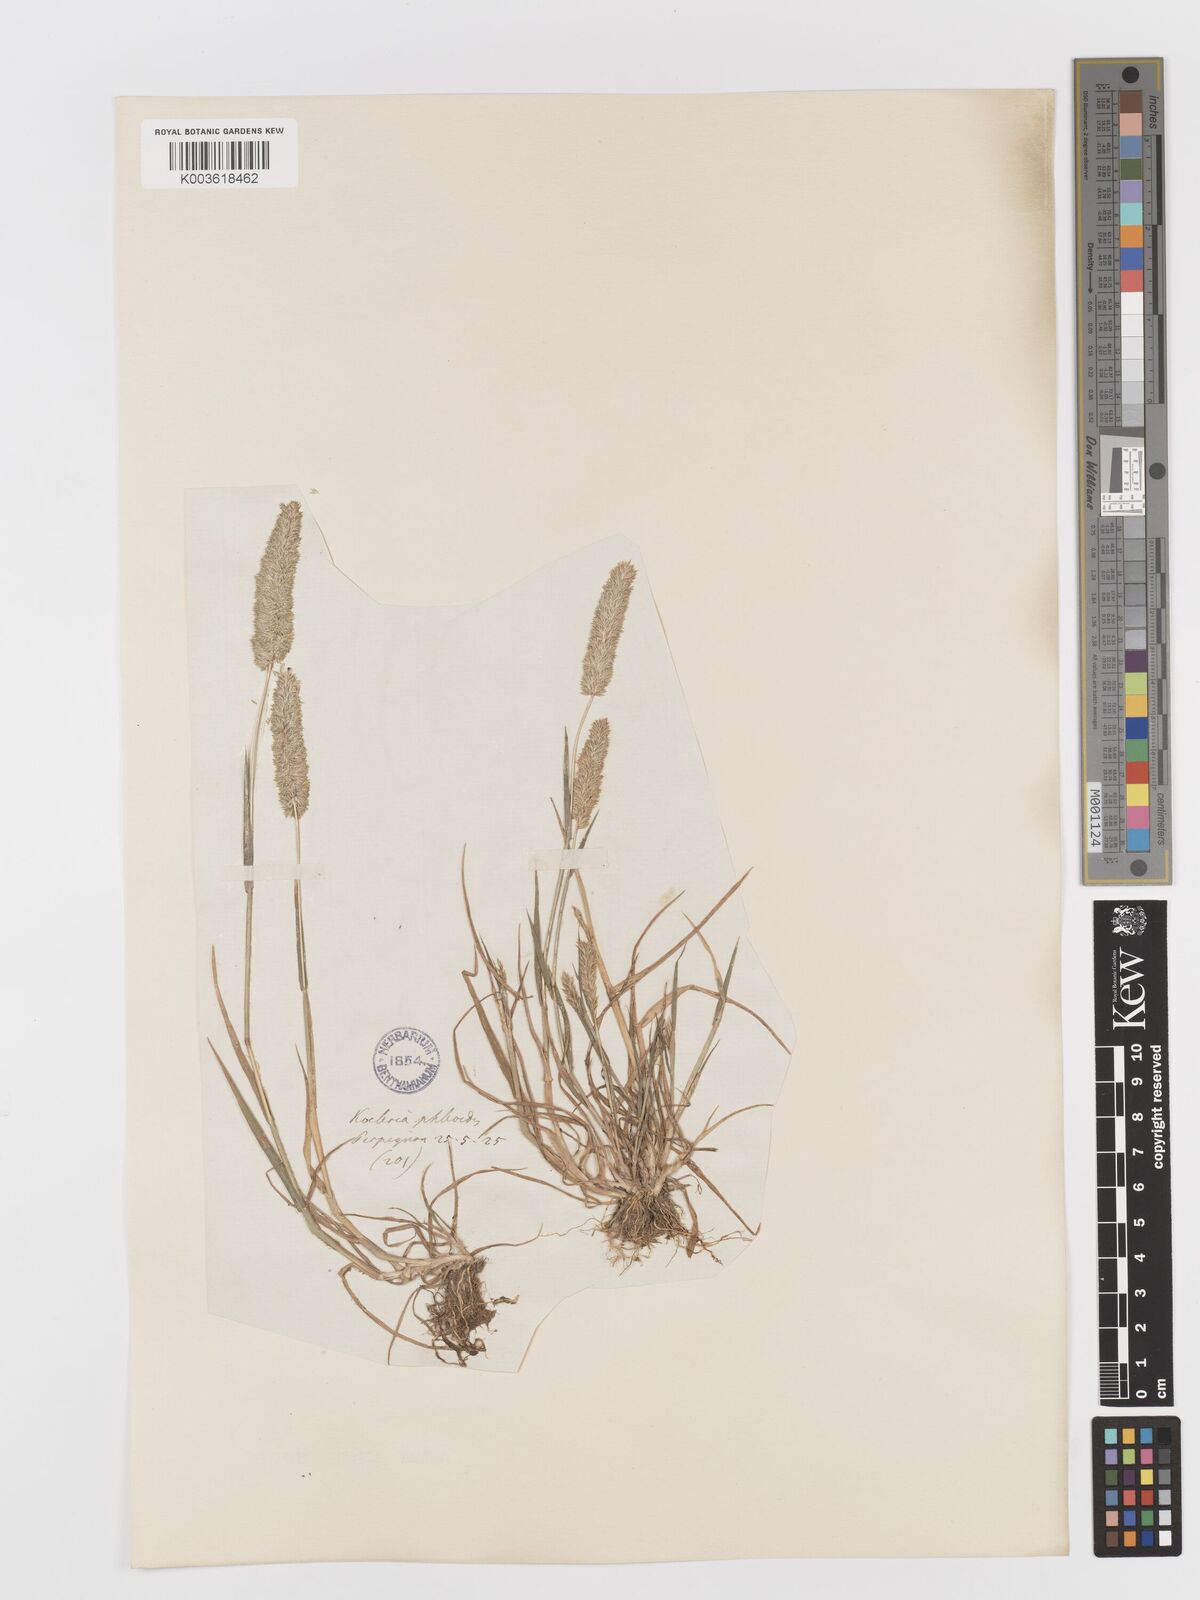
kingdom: Plantae
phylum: Tracheophyta
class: Liliopsida
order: Poales
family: Poaceae
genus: Rostraria
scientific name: Rostraria cristata
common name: Mediterranean hair-grass
